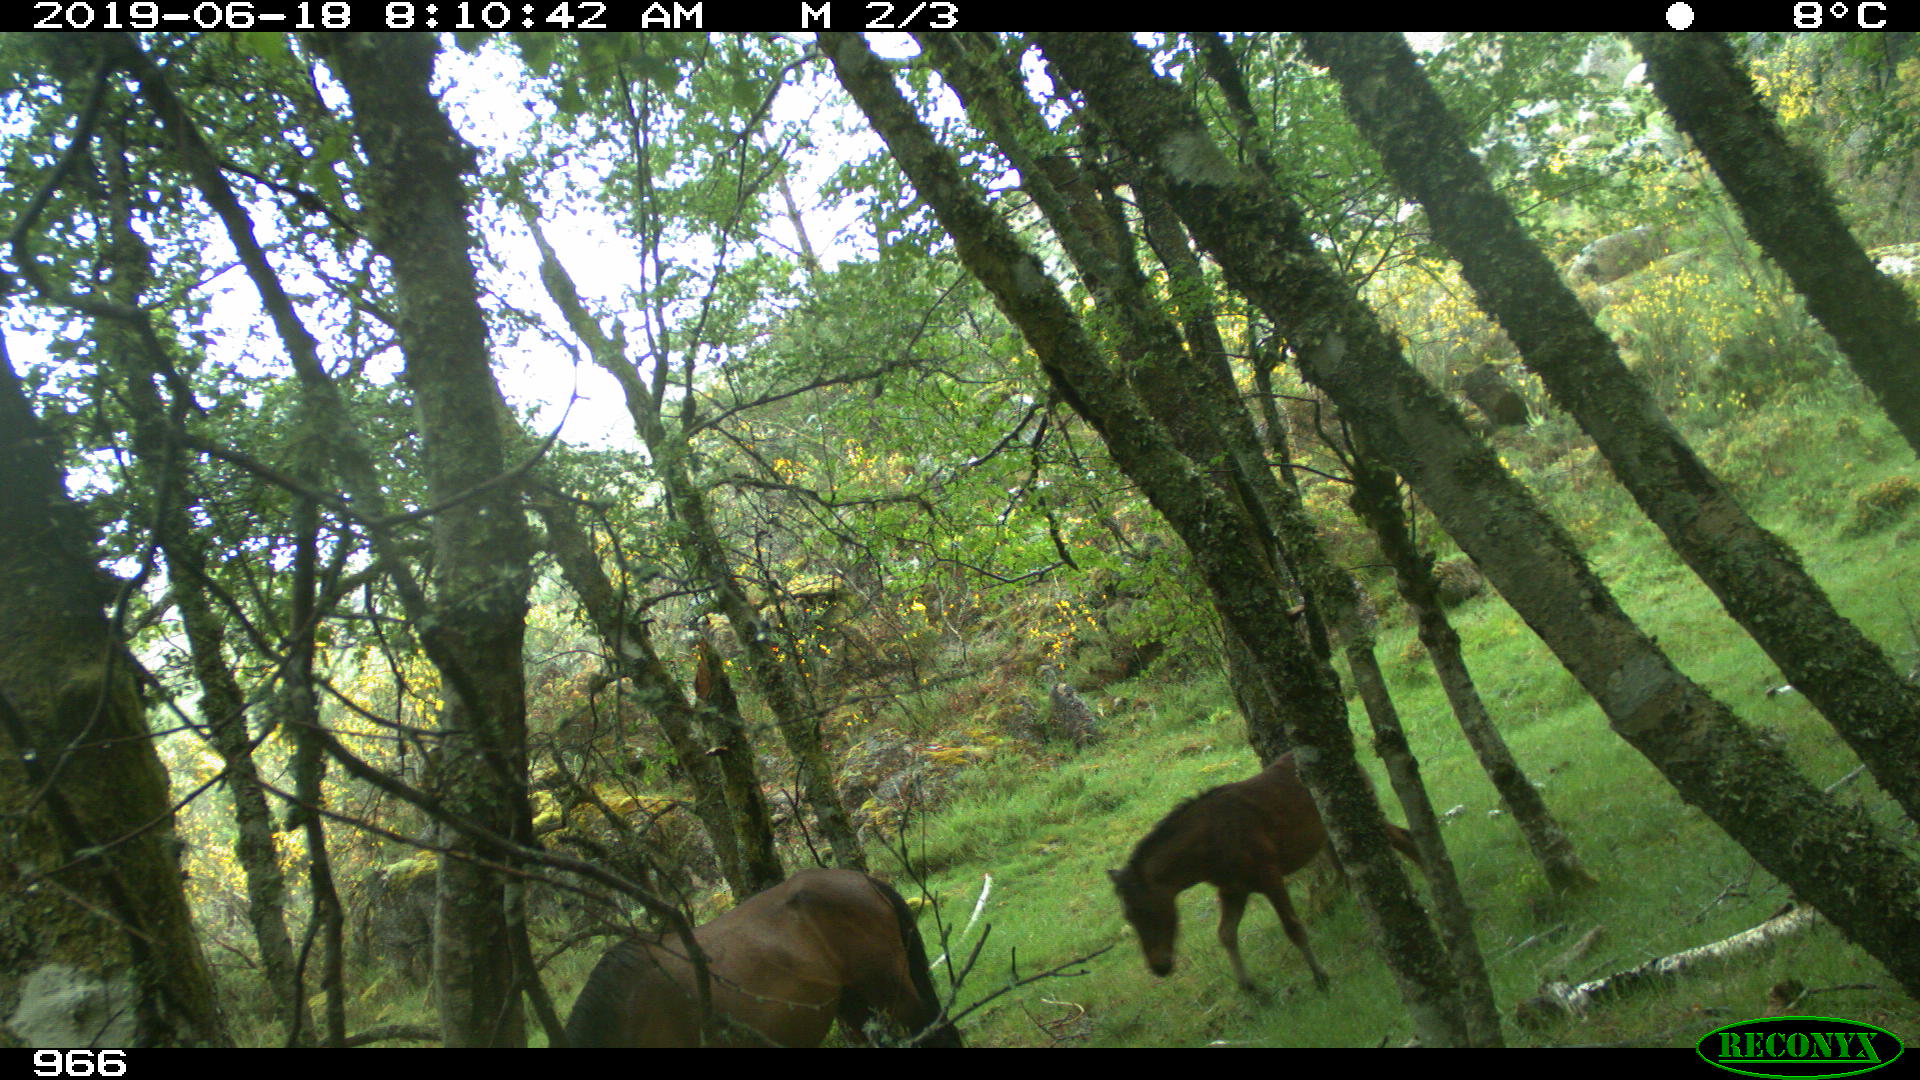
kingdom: Animalia
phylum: Chordata
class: Mammalia
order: Perissodactyla
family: Equidae
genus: Equus
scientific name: Equus caballus
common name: Horse
